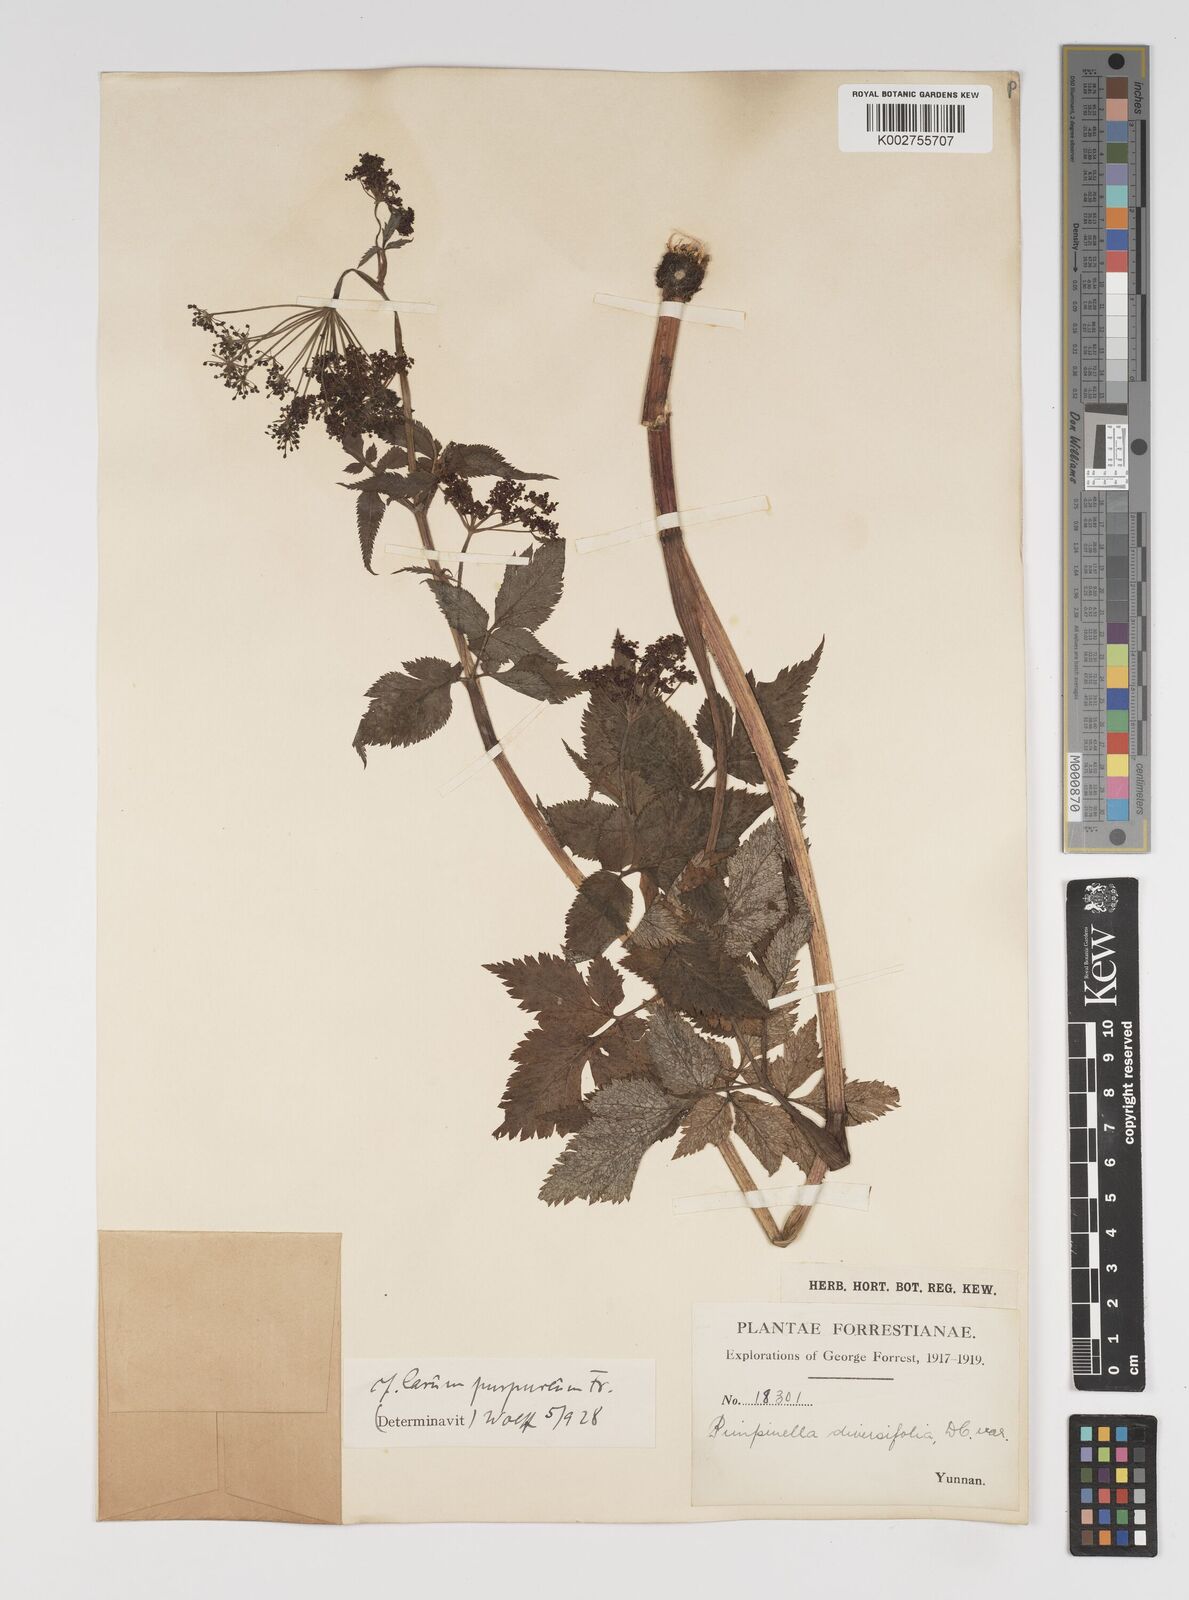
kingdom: Plantae
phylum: Tracheophyta
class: Magnoliopsida
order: Apiales
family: Apiaceae
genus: Pimpinella
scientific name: Pimpinella diversifolia
